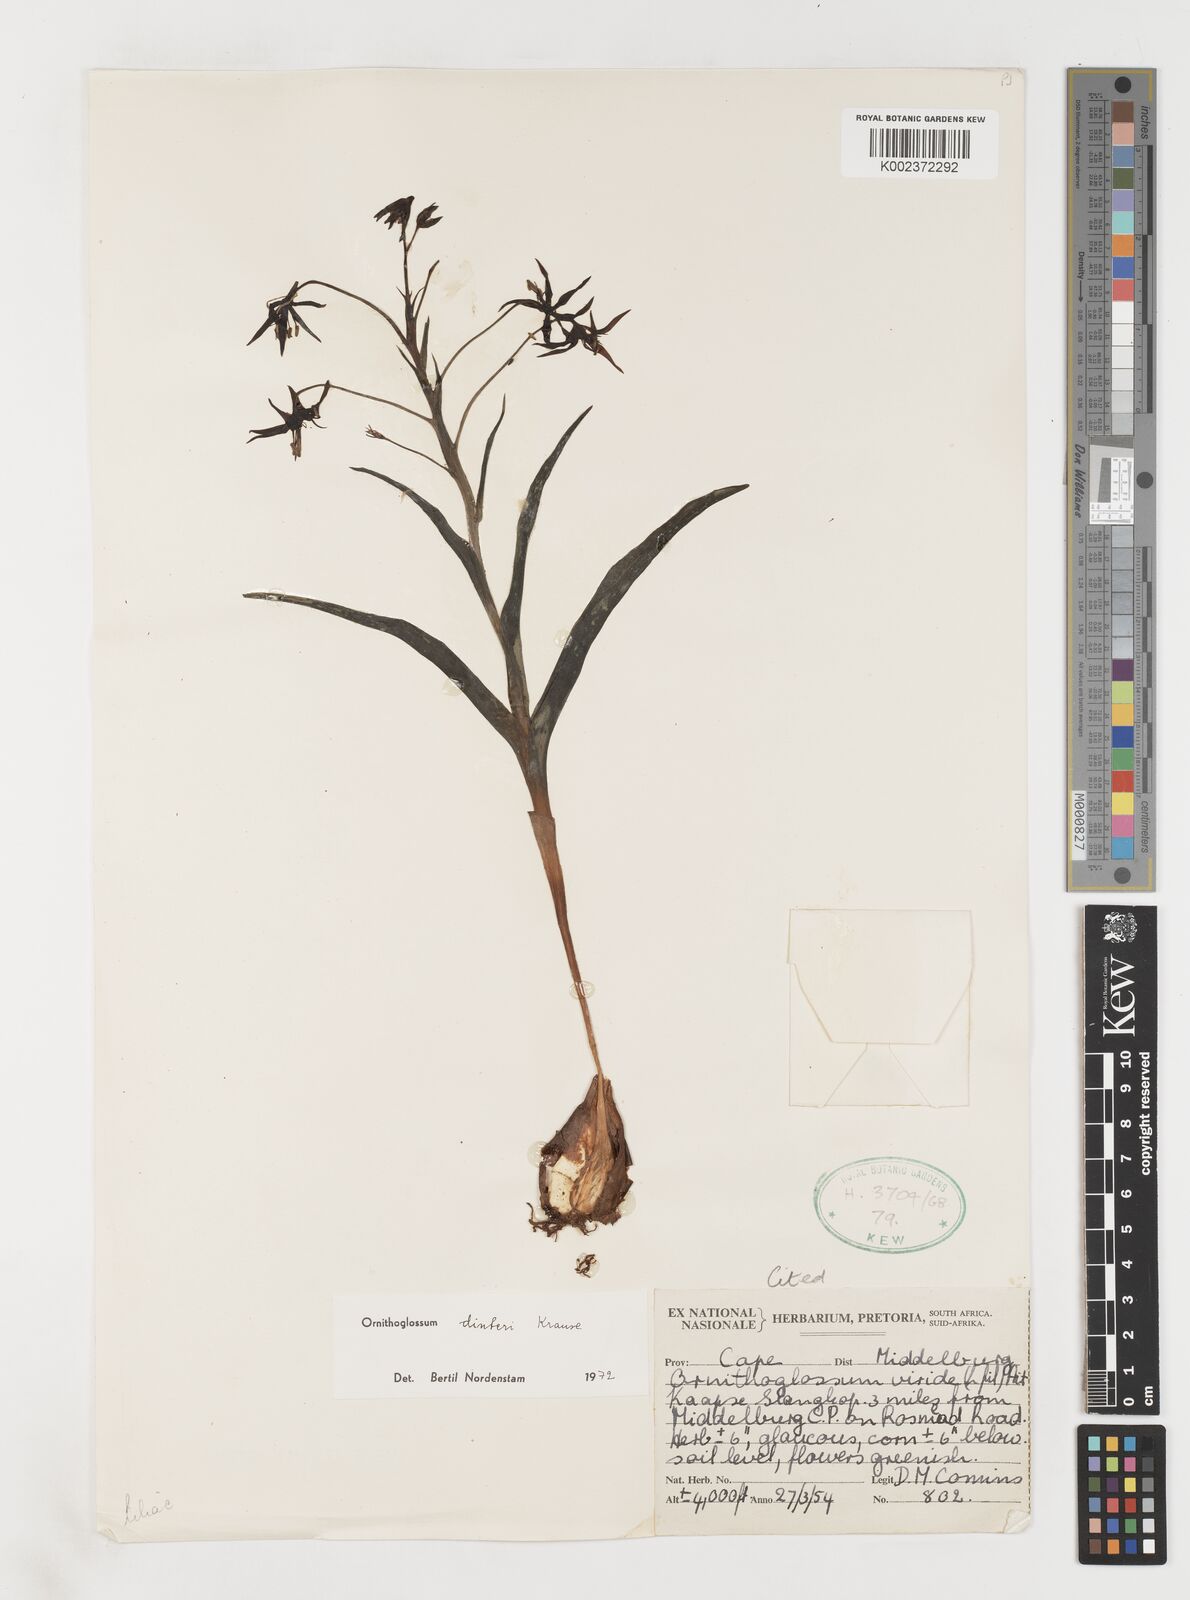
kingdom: Plantae
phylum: Tracheophyta
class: Liliopsida
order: Liliales
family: Colchicaceae
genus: Ornithoglossum
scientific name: Ornithoglossum dinteri
